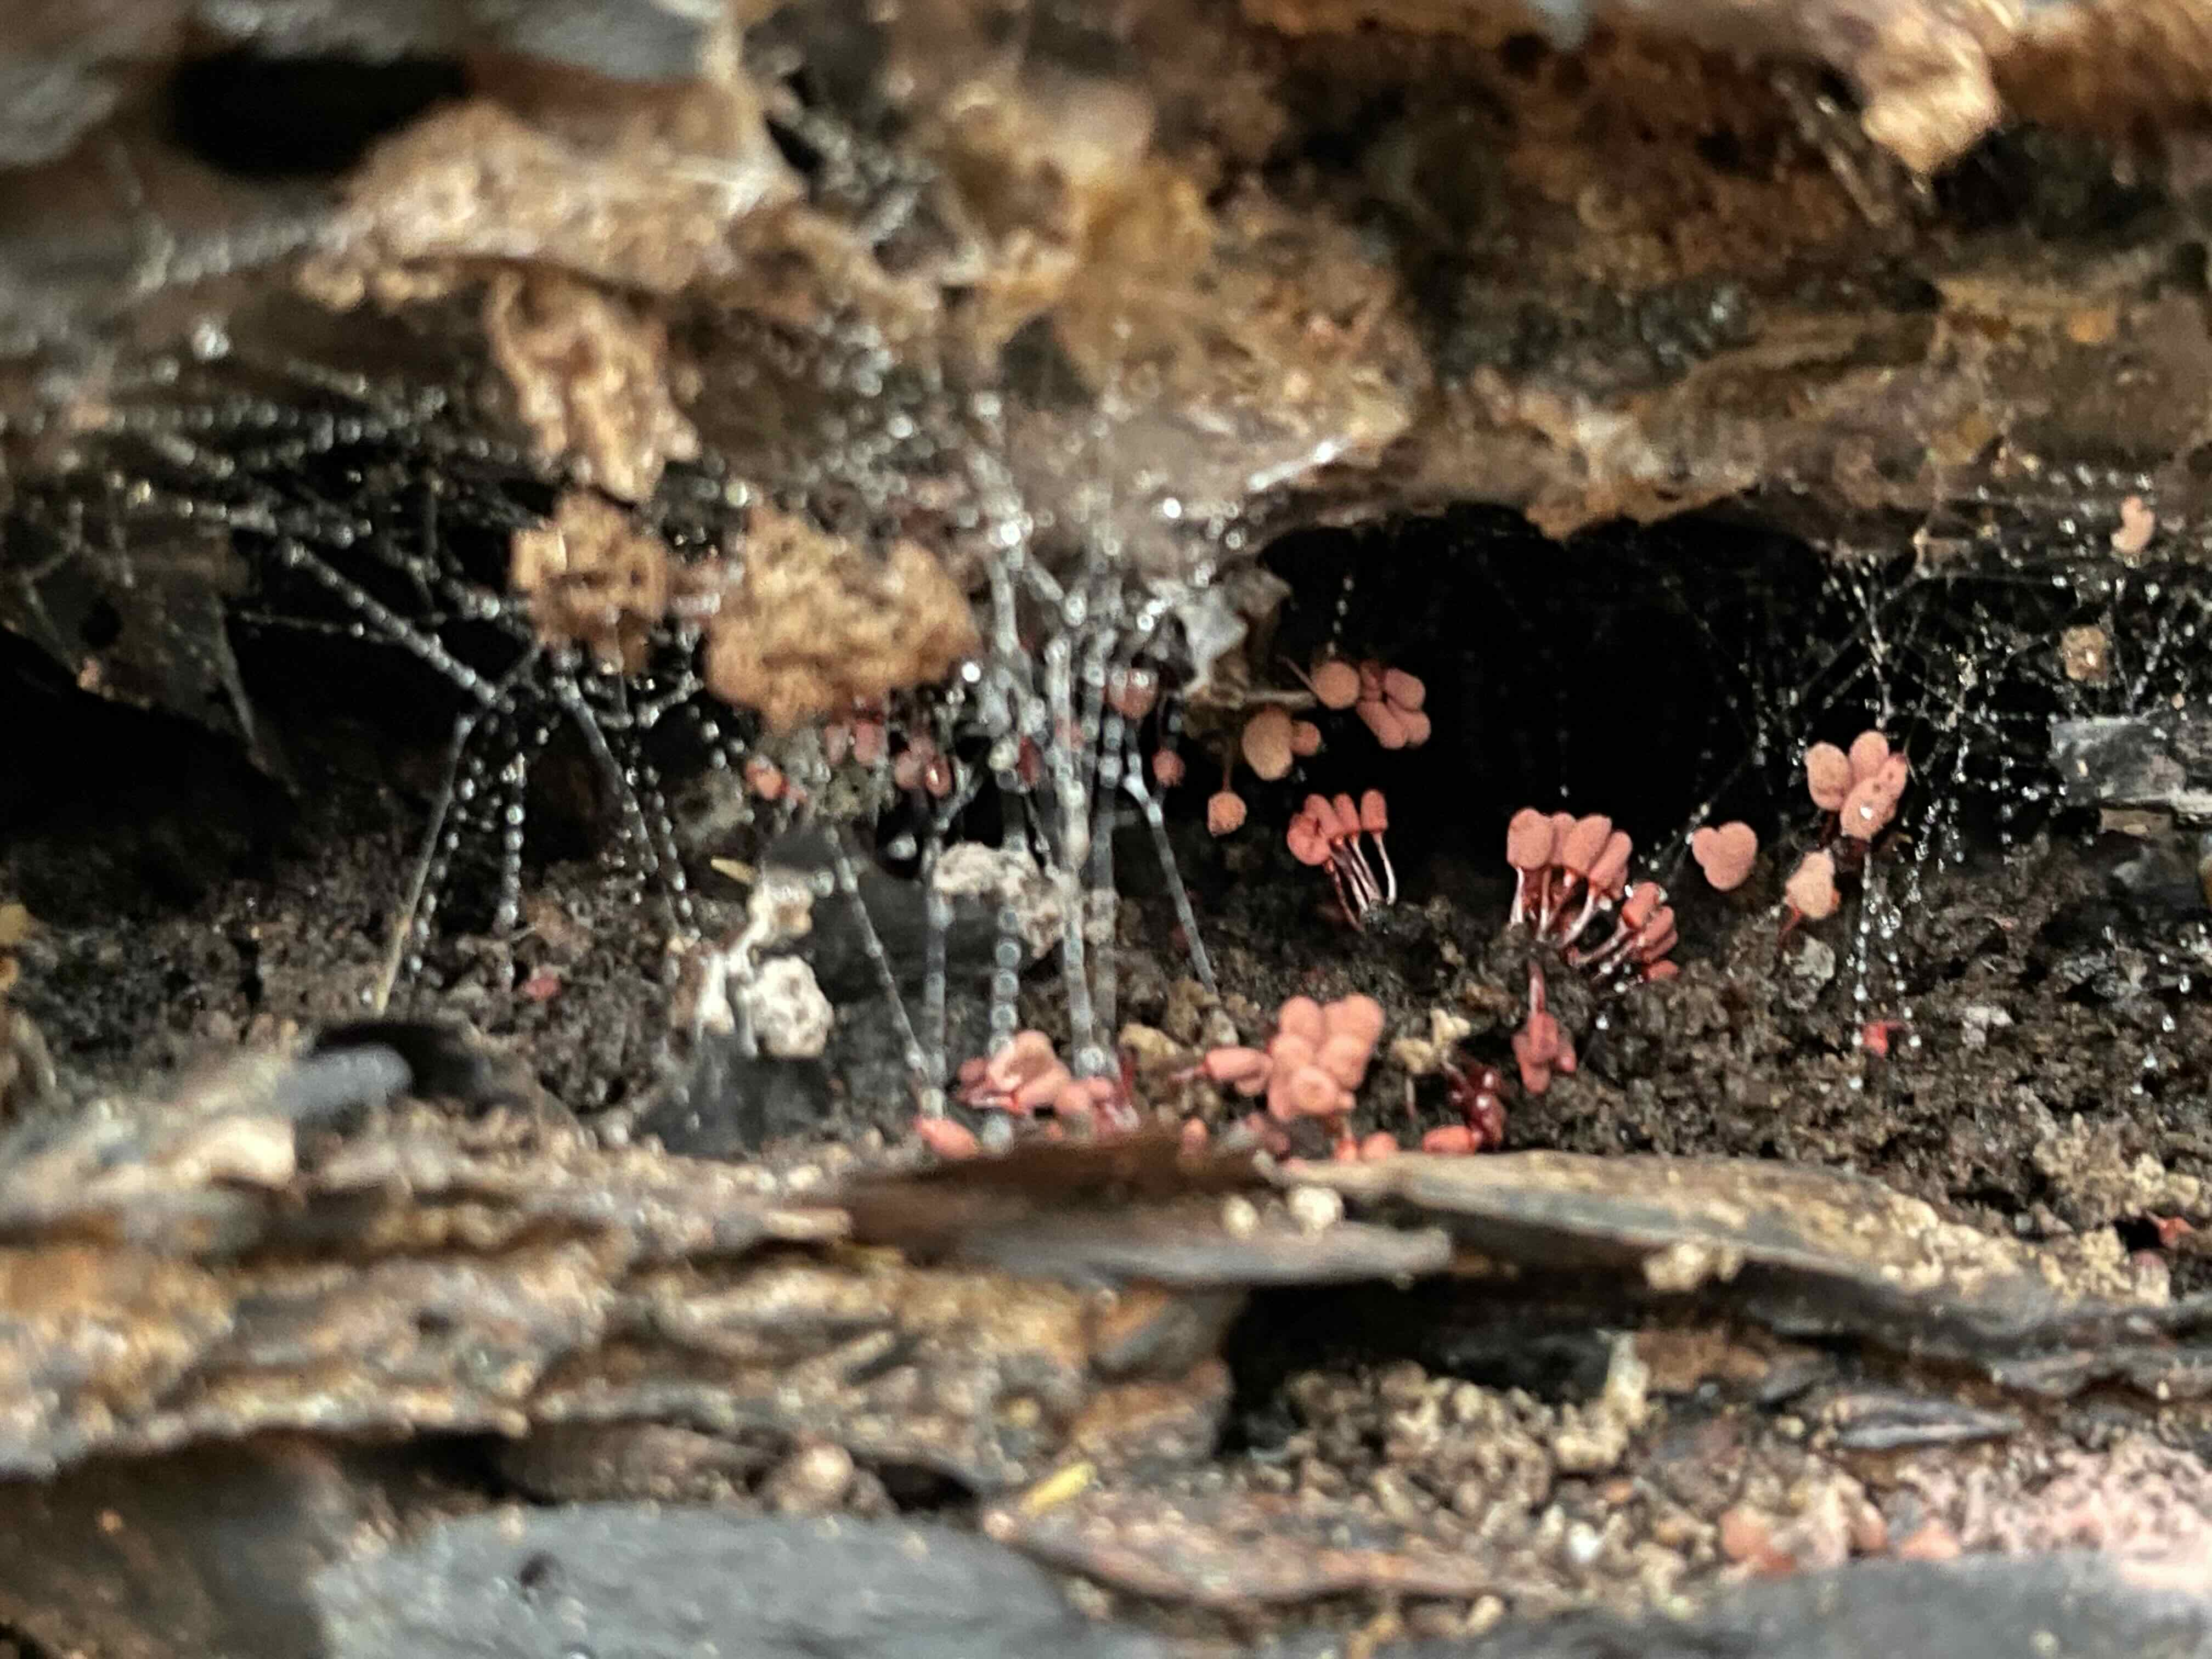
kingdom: Protozoa
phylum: Mycetozoa
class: Myxomycetes
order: Trichiales
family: Arcyriaceae
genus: Arcyria
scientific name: Arcyria denudata
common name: karminrød skålsvøb
